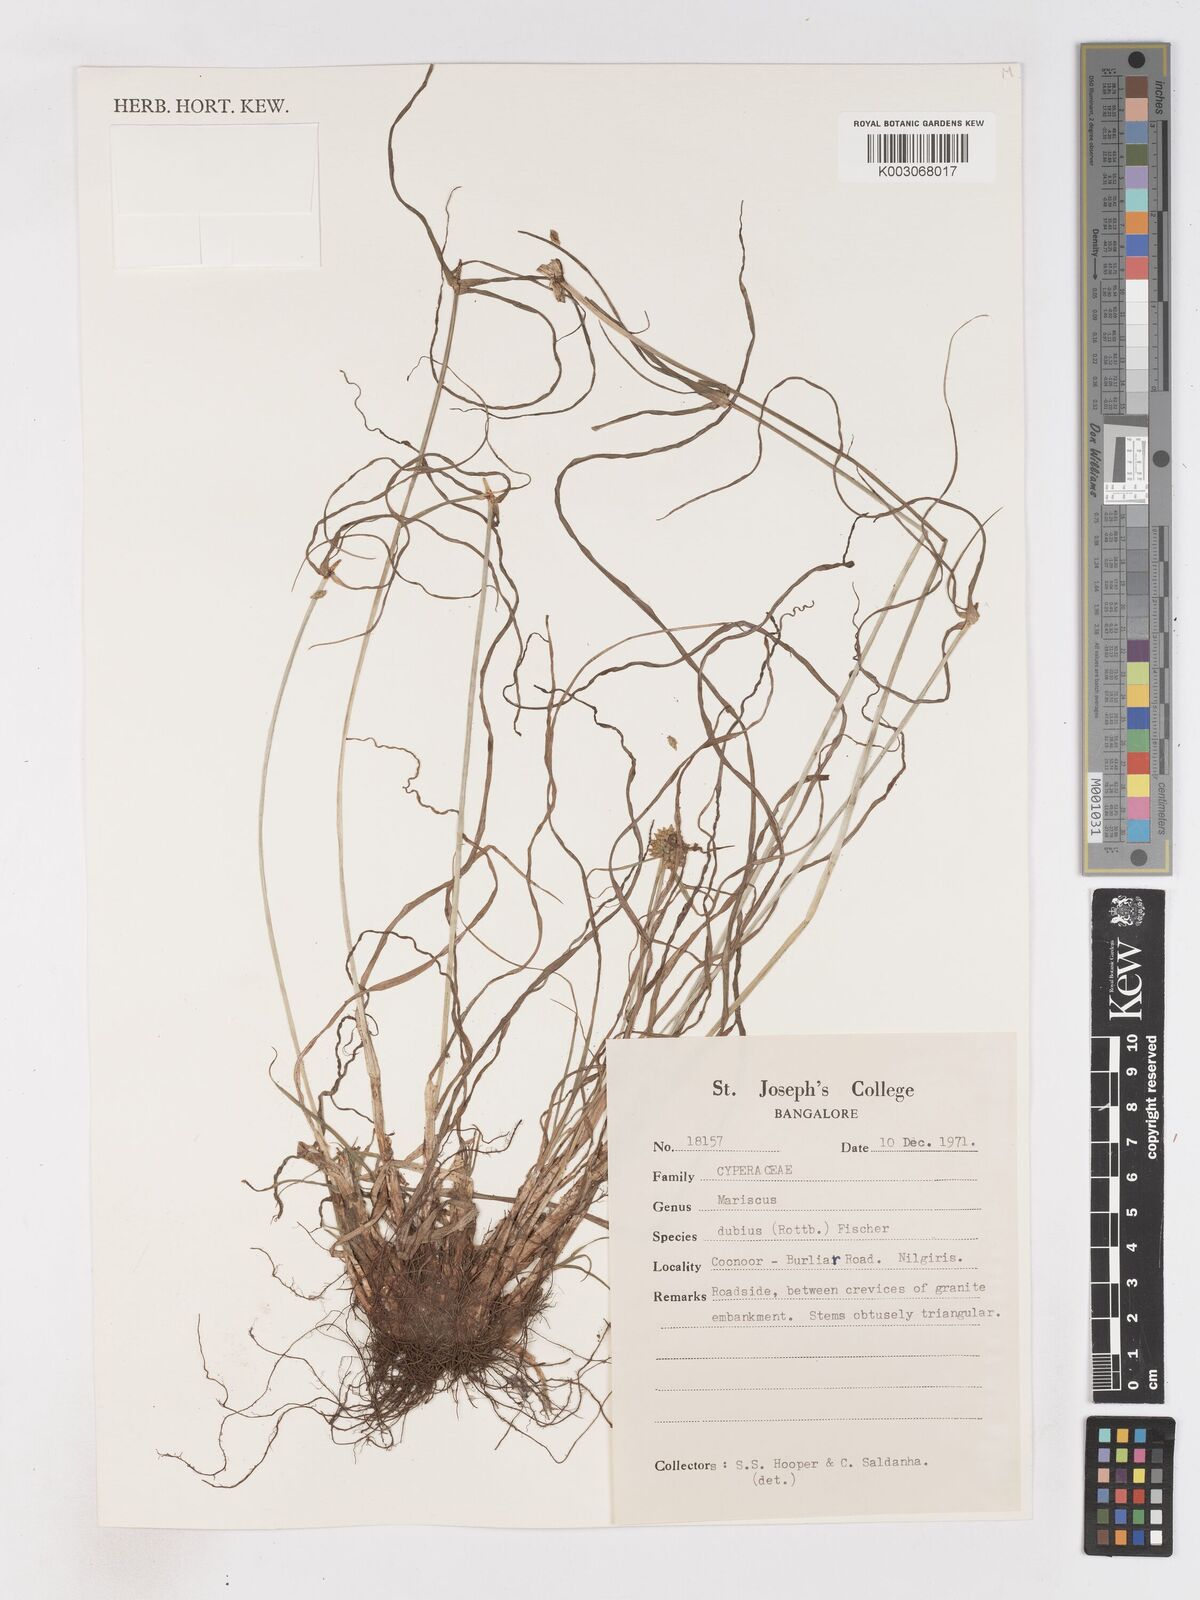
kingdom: Plantae
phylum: Tracheophyta
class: Liliopsida
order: Poales
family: Cyperaceae
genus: Cyperus
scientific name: Cyperus dubius
